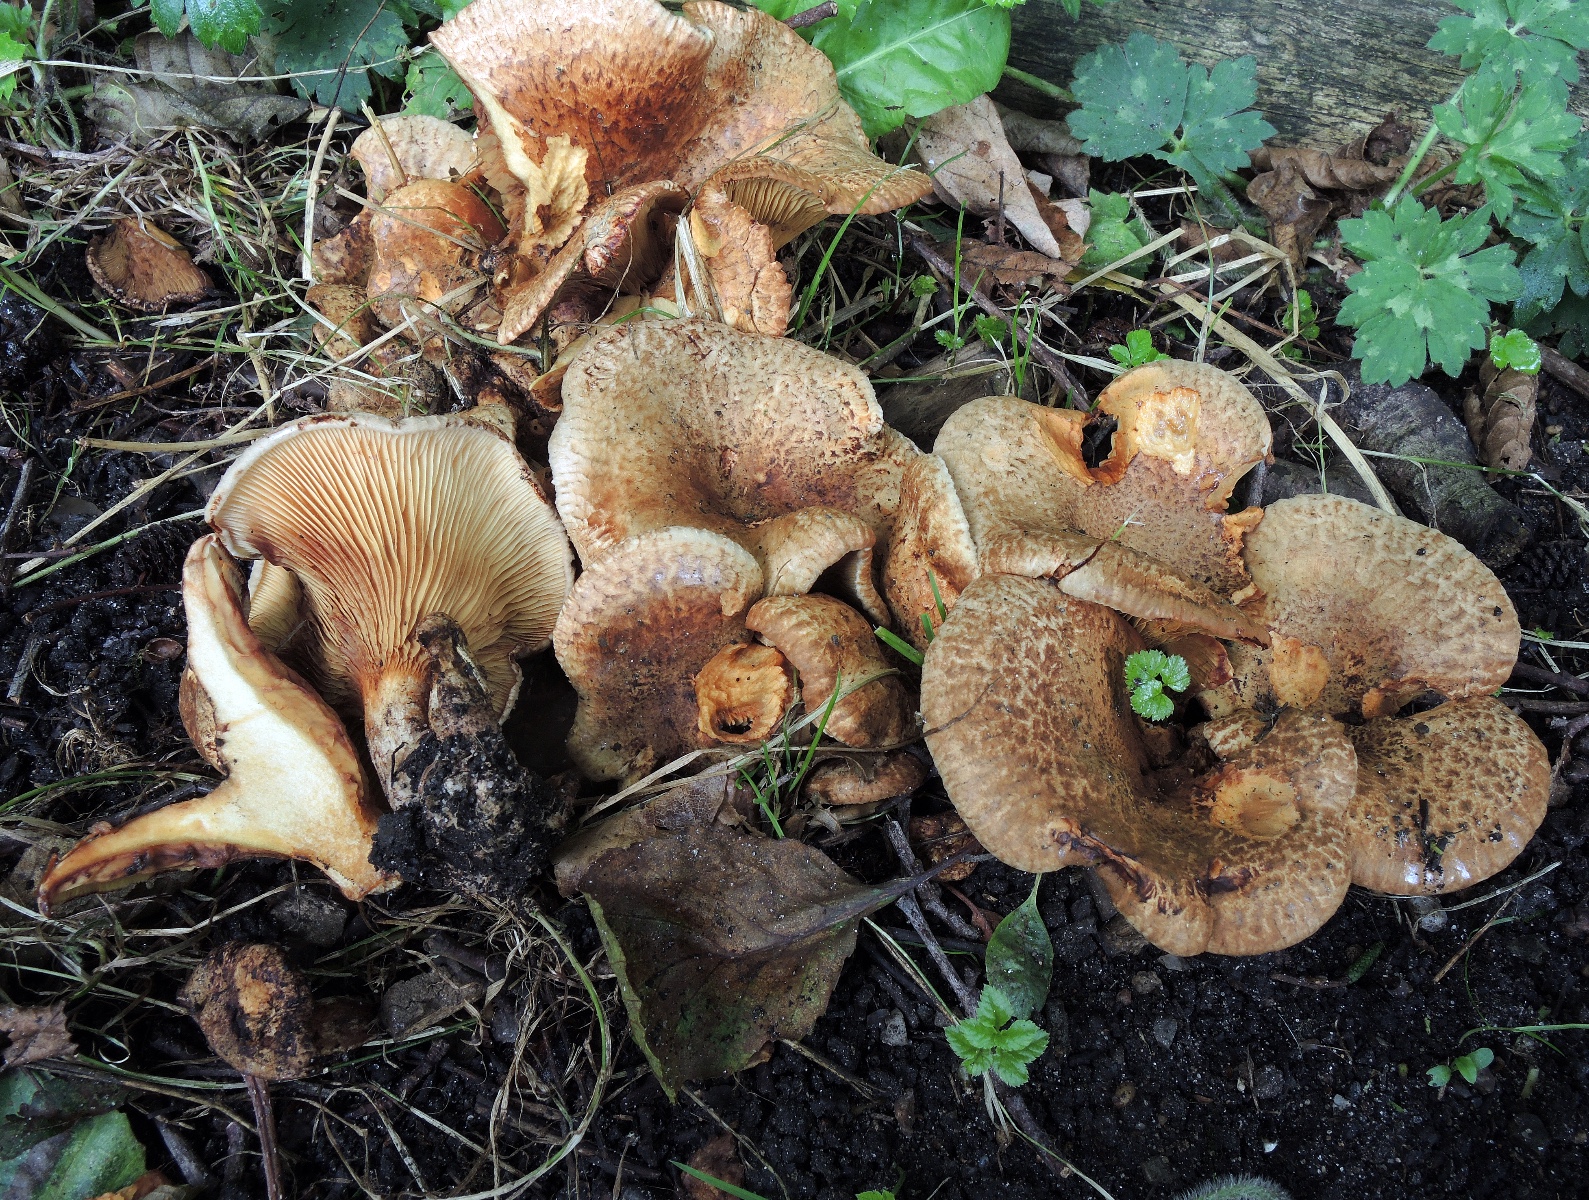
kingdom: Fungi
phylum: Basidiomycota
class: Agaricomycetes
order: Boletales
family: Paxillaceae
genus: Paxillus
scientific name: Paxillus olivellus
